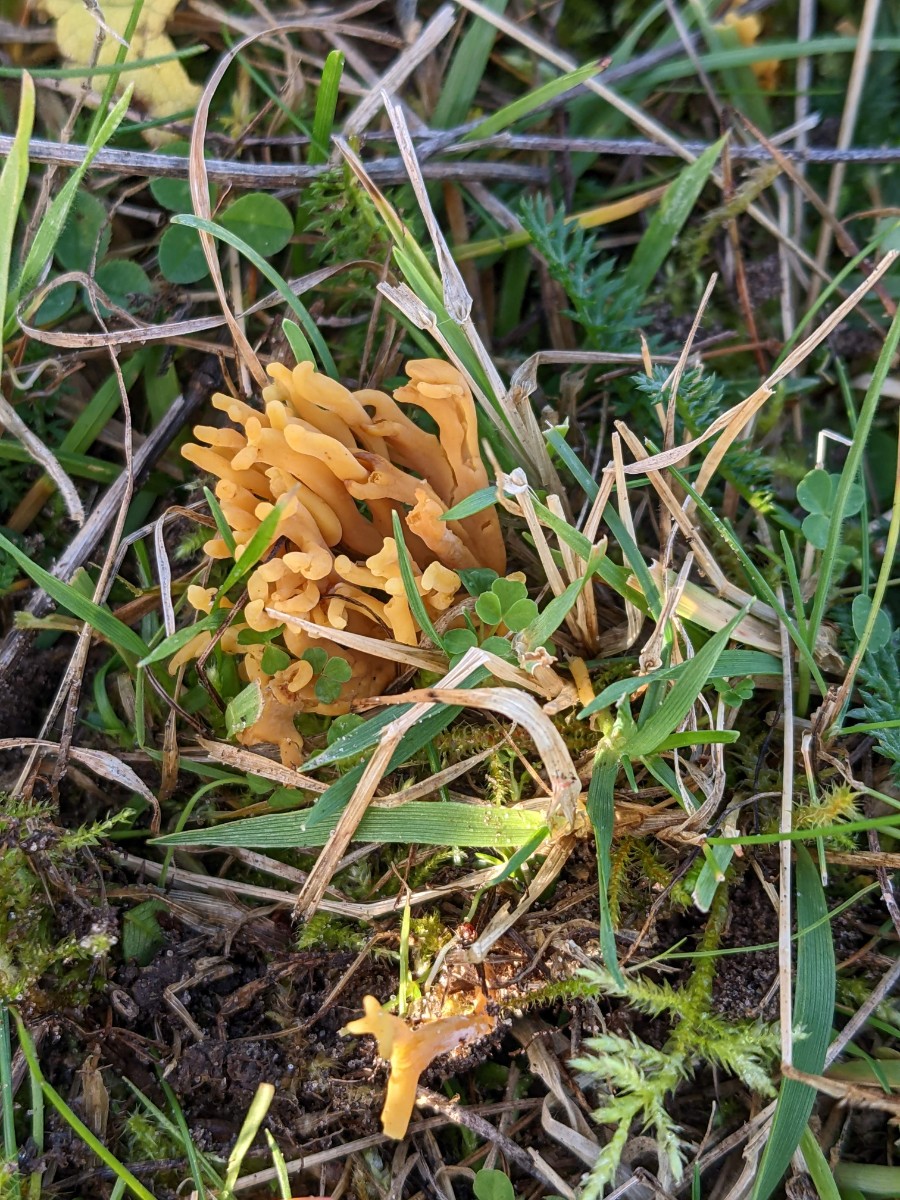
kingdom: Fungi
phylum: Basidiomycota
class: Agaricomycetes
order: Agaricales
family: Clavariaceae
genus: Clavulinopsis
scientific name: Clavulinopsis corniculata
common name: eng-køllesvamp
